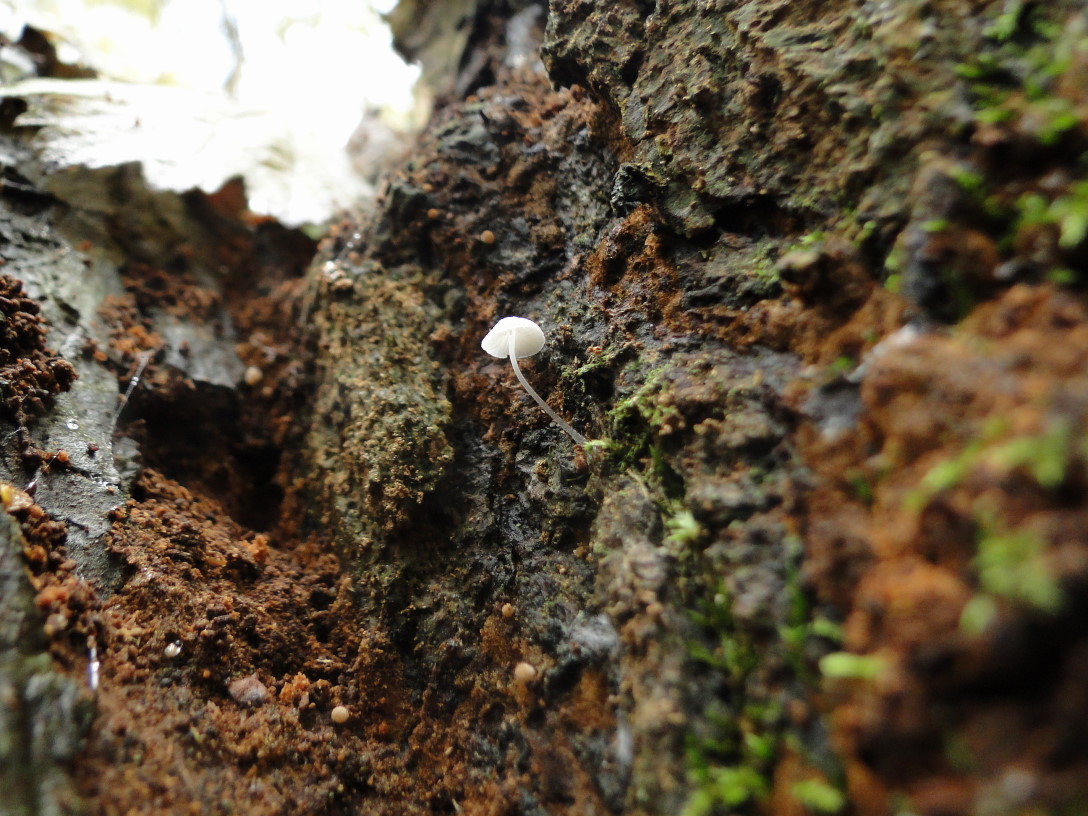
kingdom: Fungi
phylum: Basidiomycota
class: Agaricomycetes
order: Agaricales
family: Mycenaceae
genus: Mycena
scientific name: Mycena tenerrima
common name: pudret huesvamp
